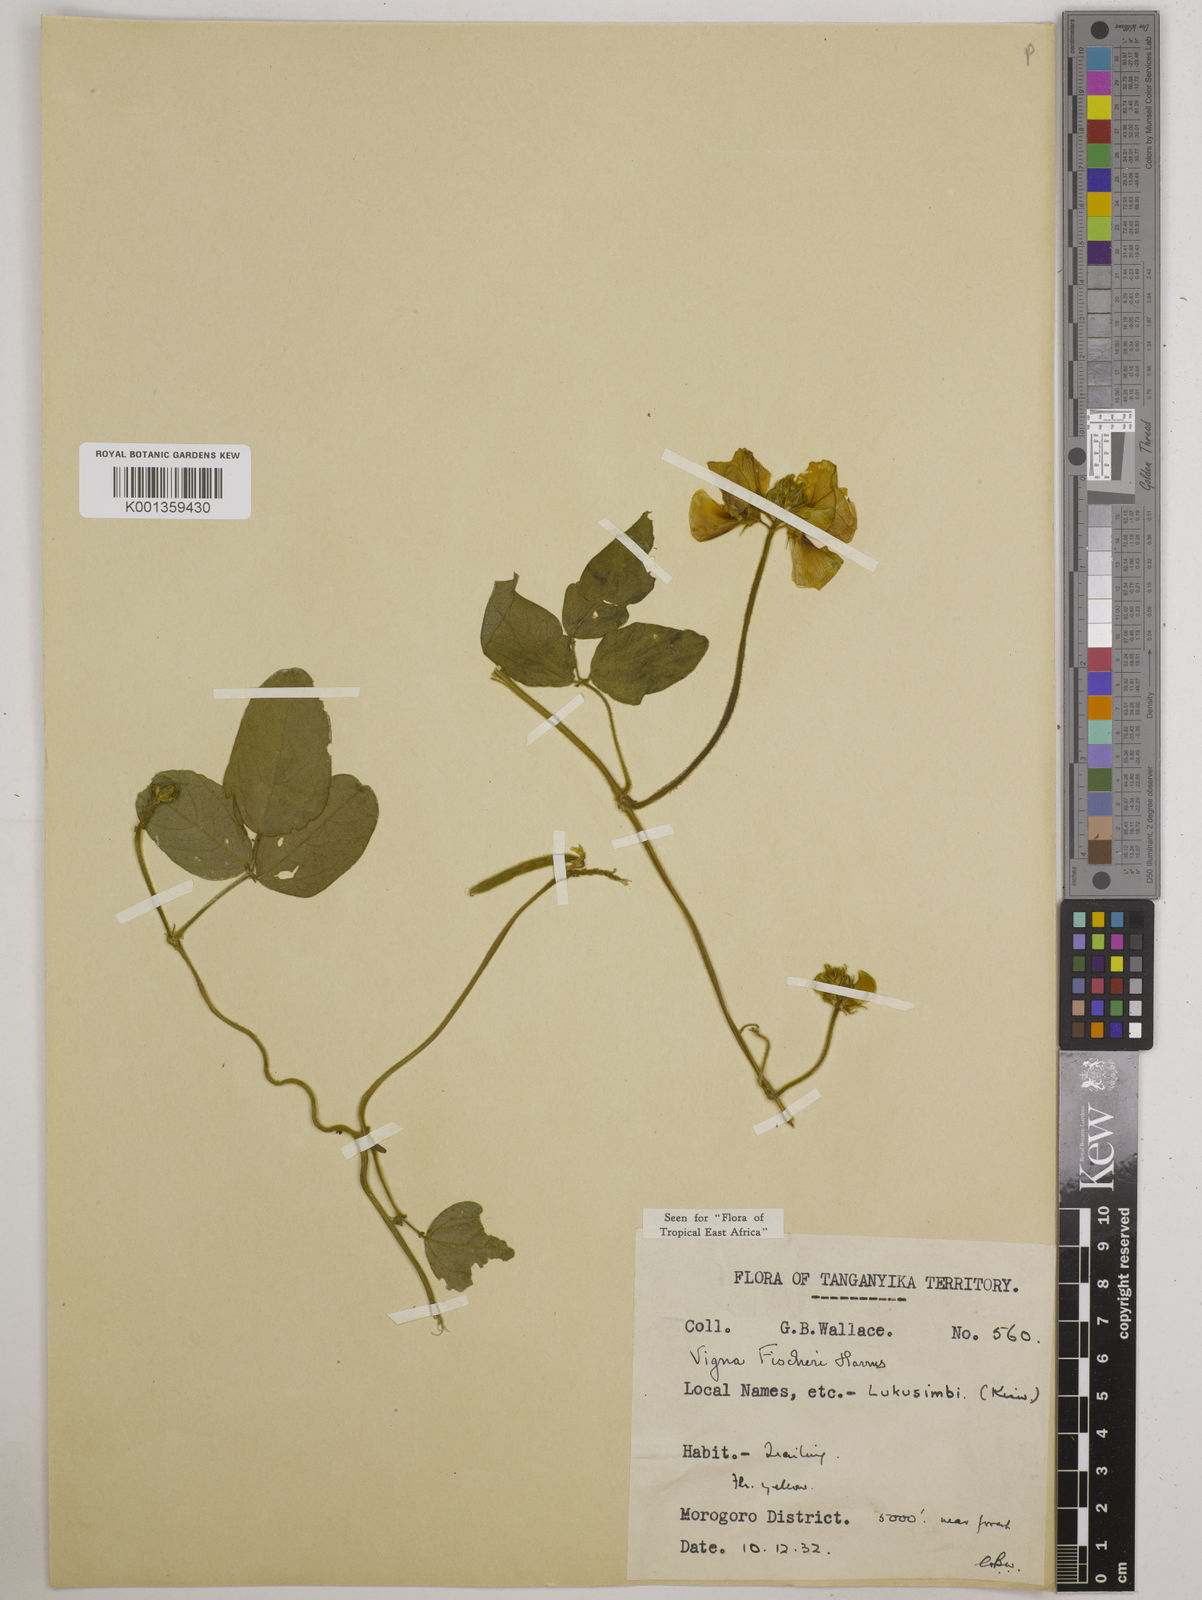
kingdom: Plantae
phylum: Tracheophyta
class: Magnoliopsida
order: Fabales
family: Fabaceae
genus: Vigna
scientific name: Vigna fischeri
